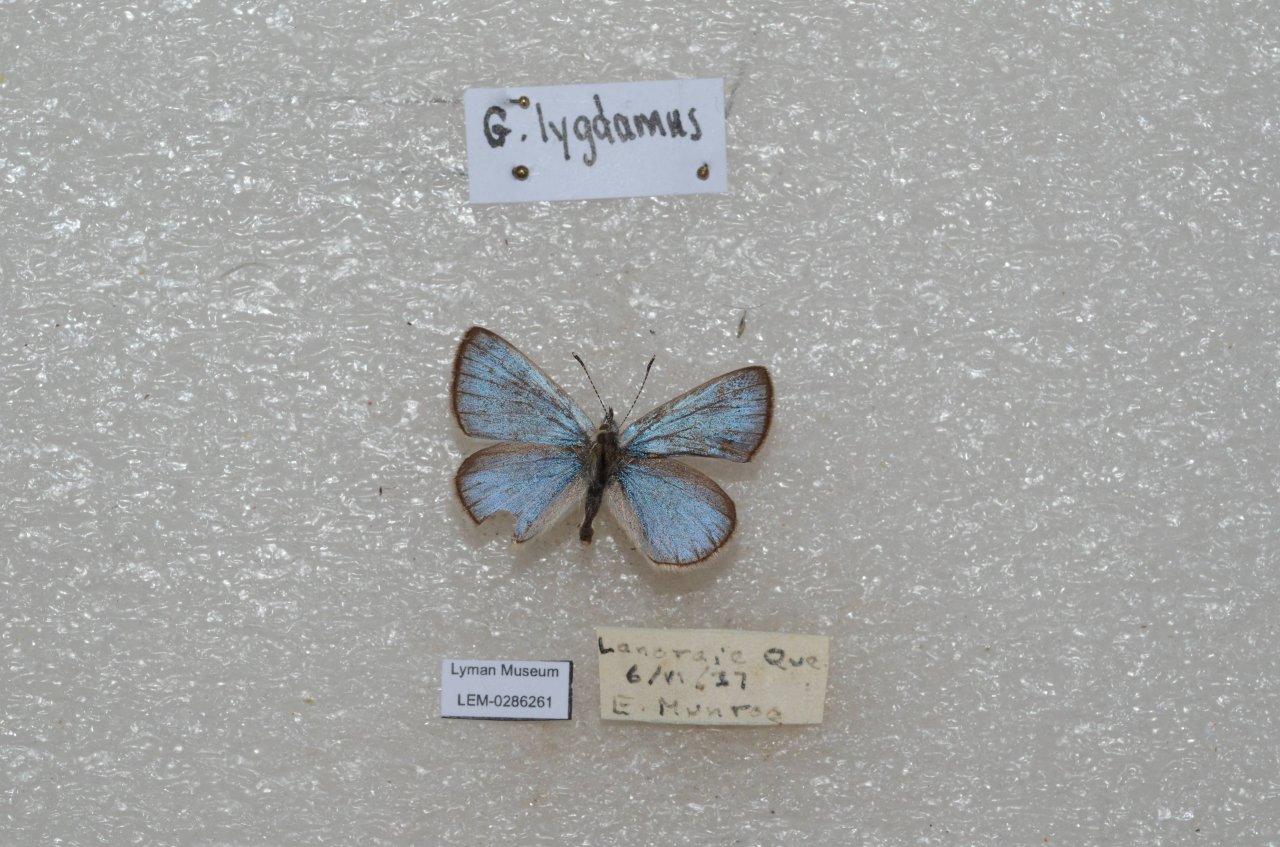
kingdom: Animalia
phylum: Arthropoda
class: Insecta
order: Lepidoptera
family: Lycaenidae
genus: Glaucopsyche
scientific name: Glaucopsyche lygdamus
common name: Silvery Blue
